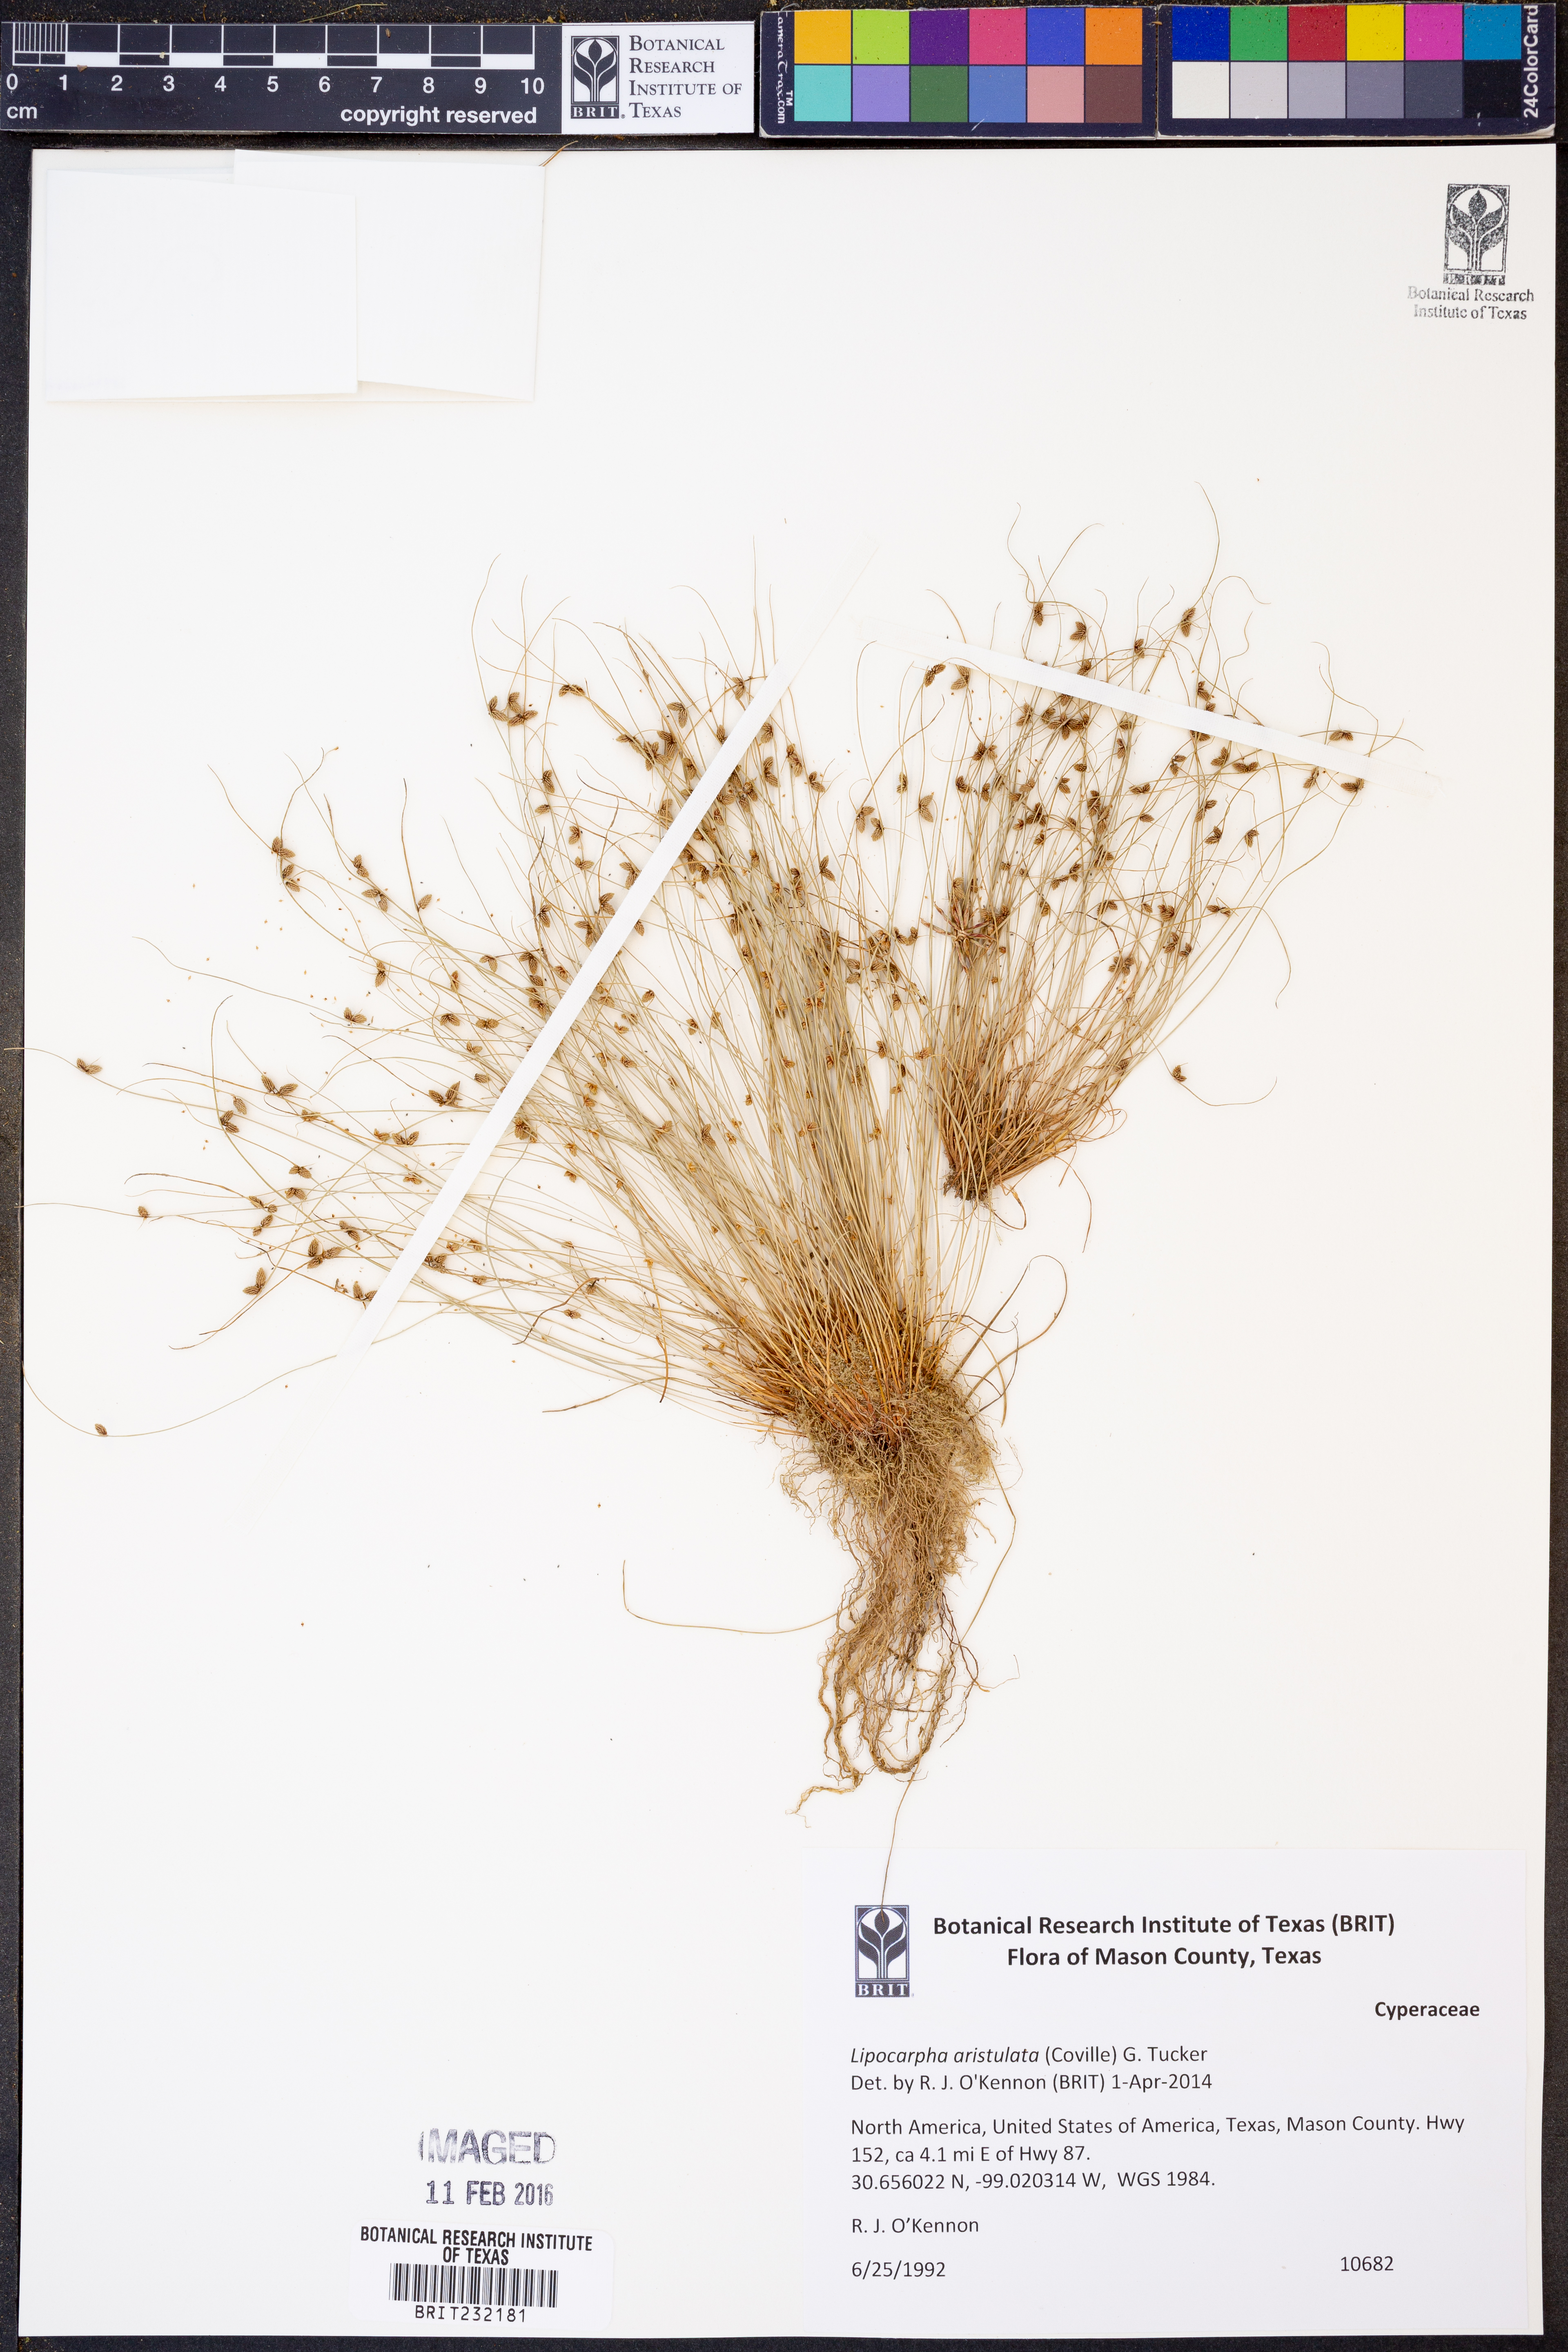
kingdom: Plantae
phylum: Tracheophyta
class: Liliopsida
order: Poales
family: Cyperaceae
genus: Cyperus
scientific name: Cyperus aristulatus
